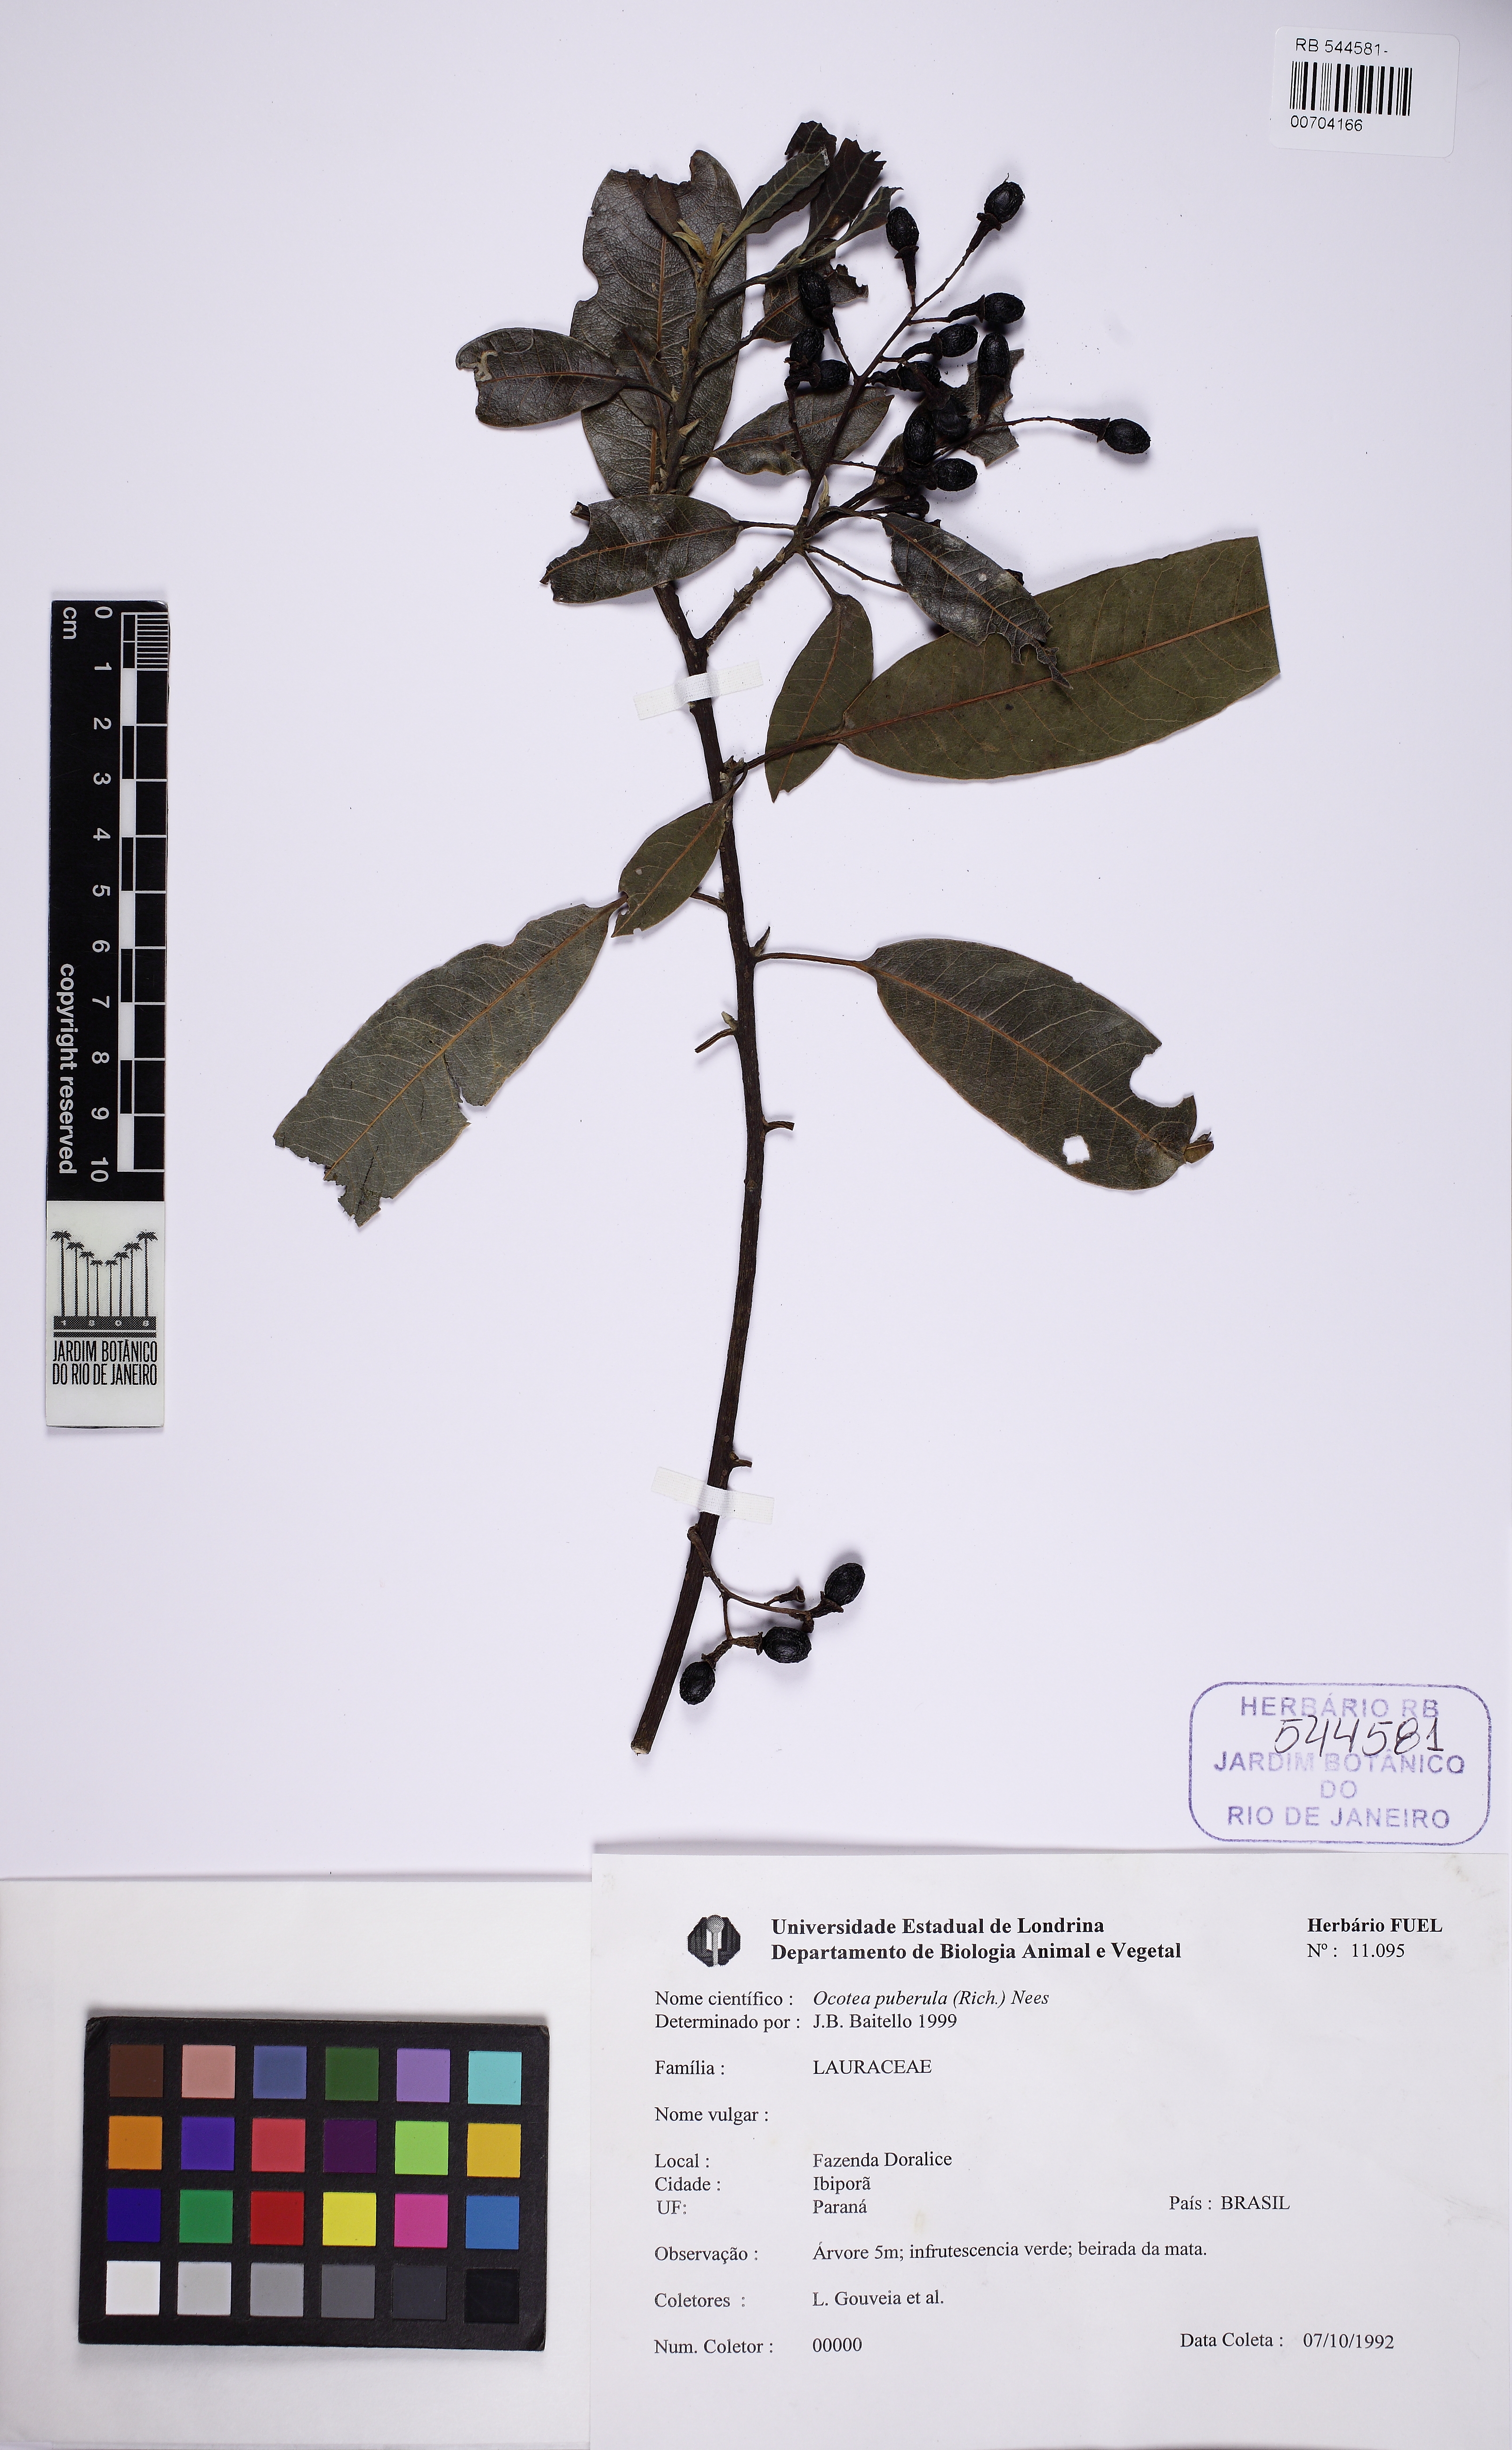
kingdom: Plantae
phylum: Tracheophyta
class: Magnoliopsida
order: Laurales
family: Lauraceae
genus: Ocotea
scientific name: Ocotea puberula
